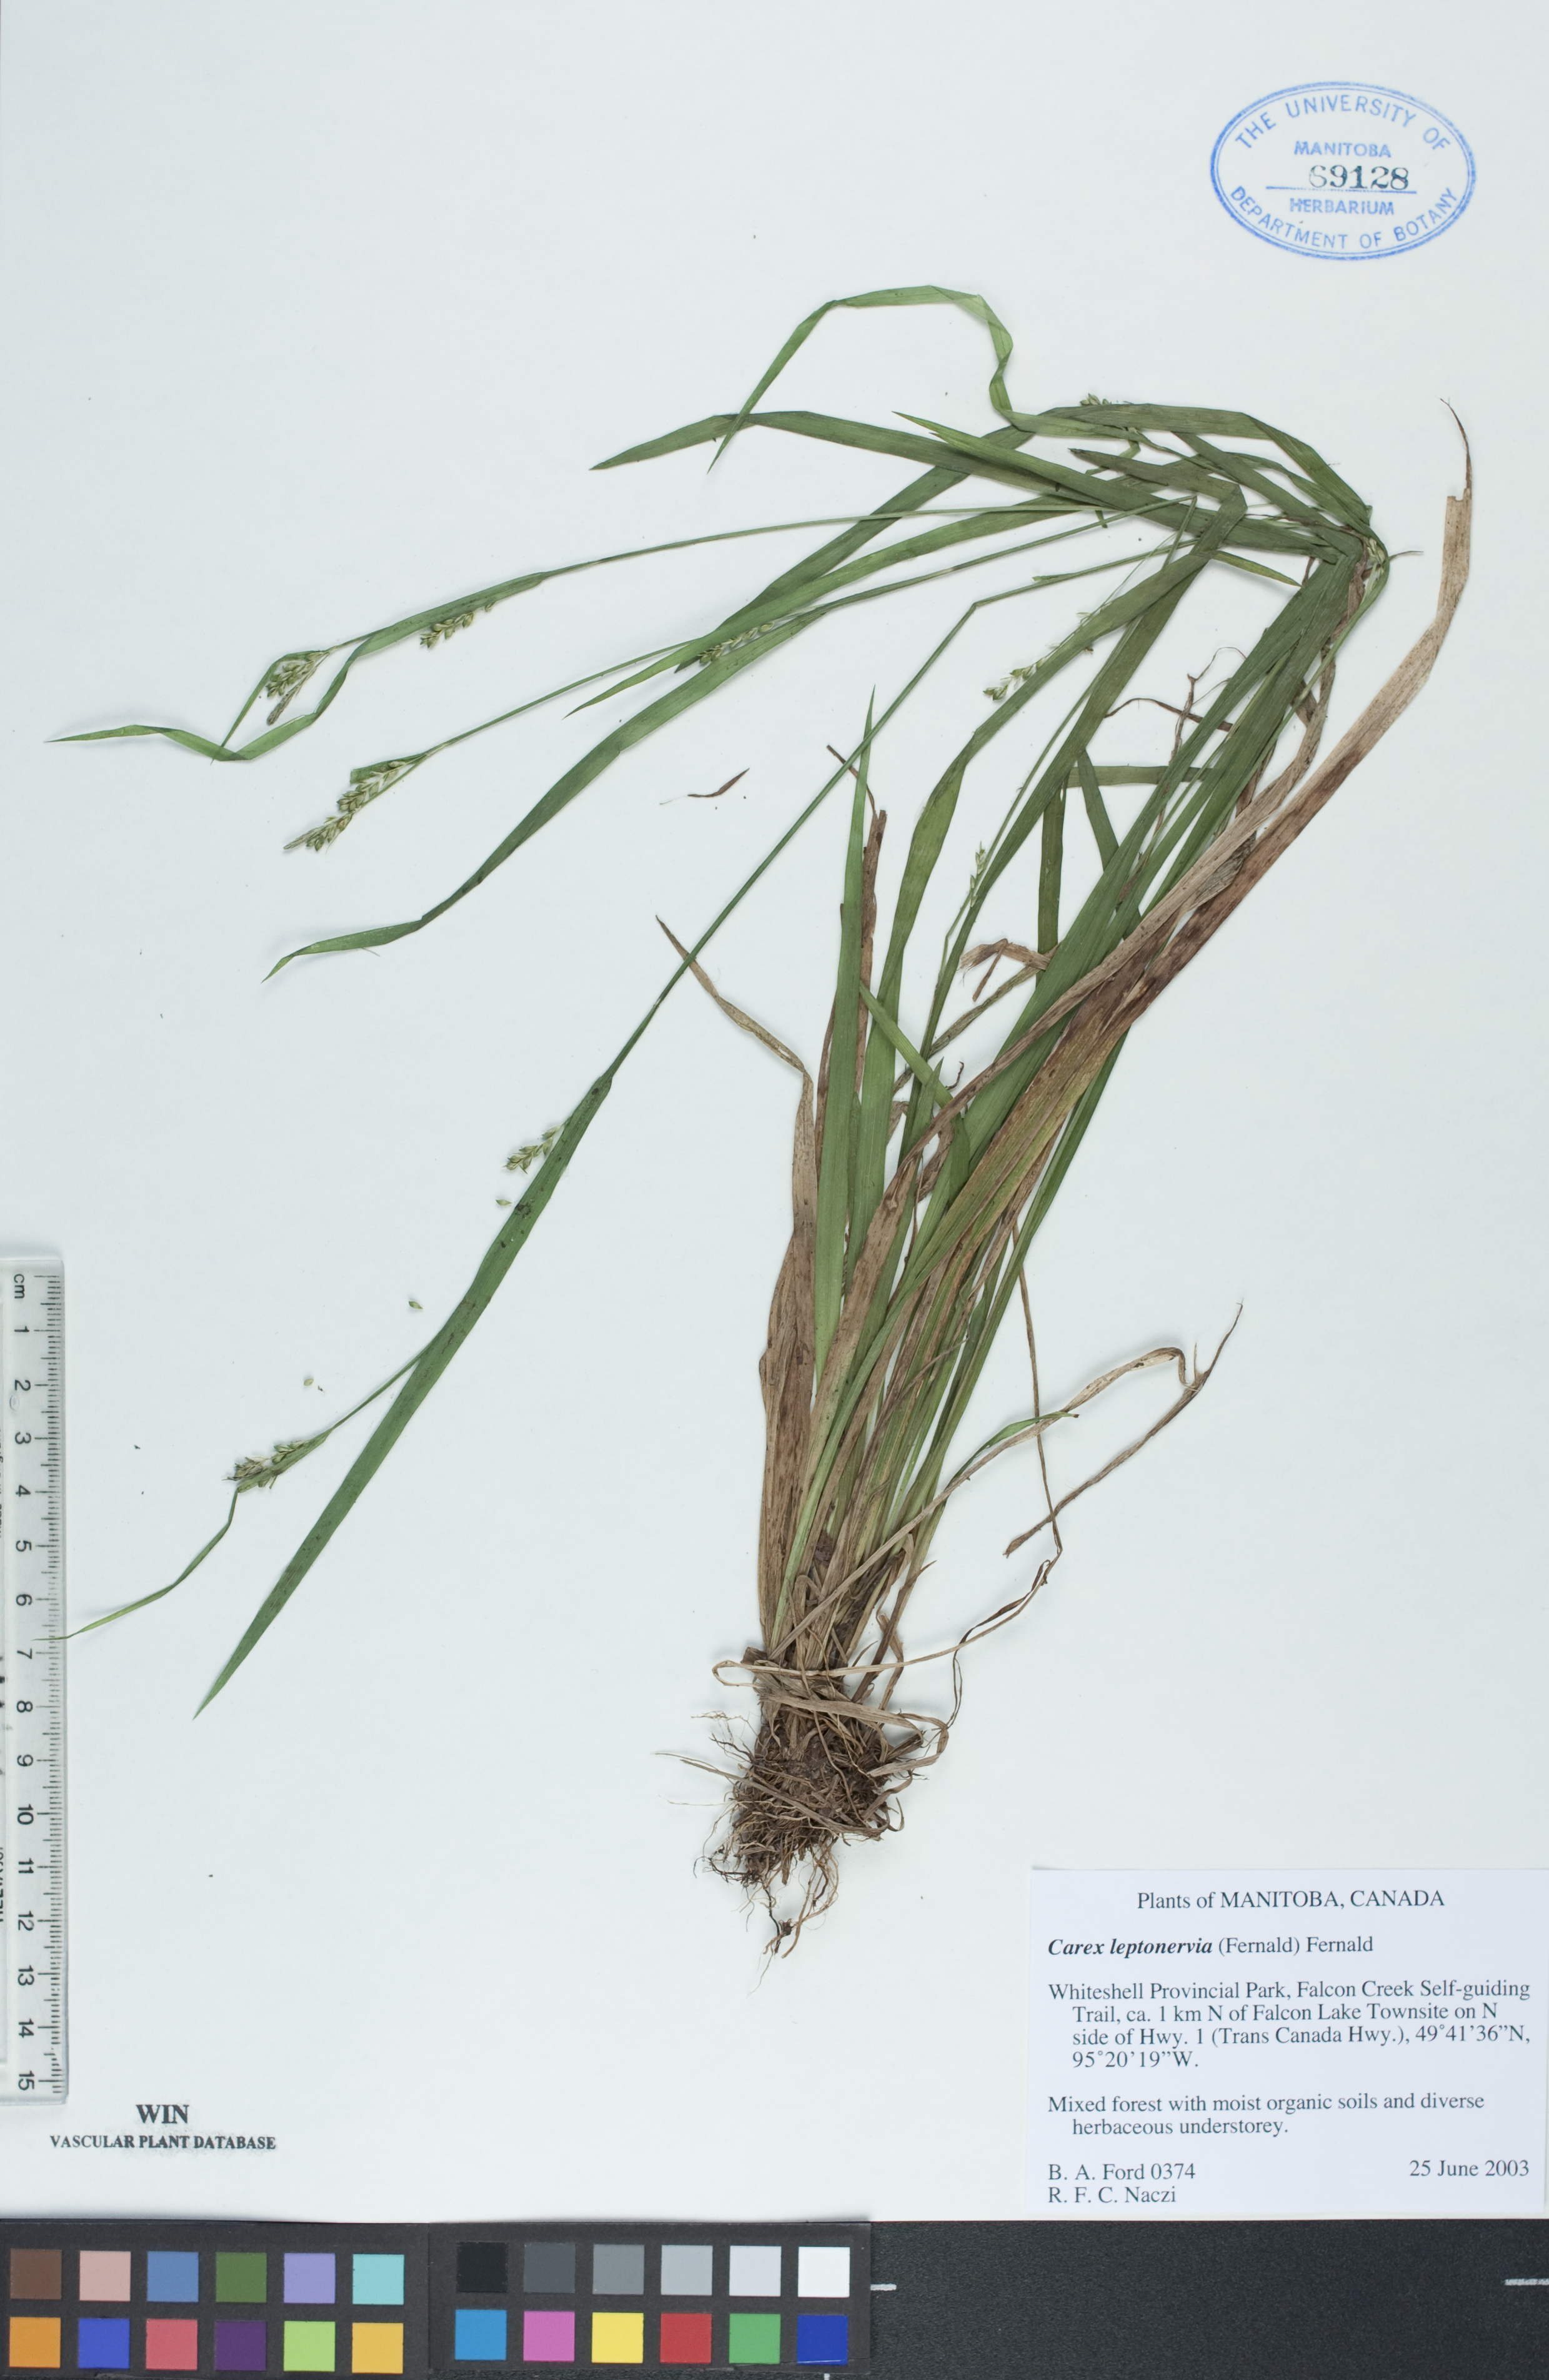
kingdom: Plantae
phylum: Tracheophyta
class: Liliopsida
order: Poales
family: Cyperaceae
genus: Carex
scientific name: Carex leptonervia
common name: Few-nerved wood sedge
